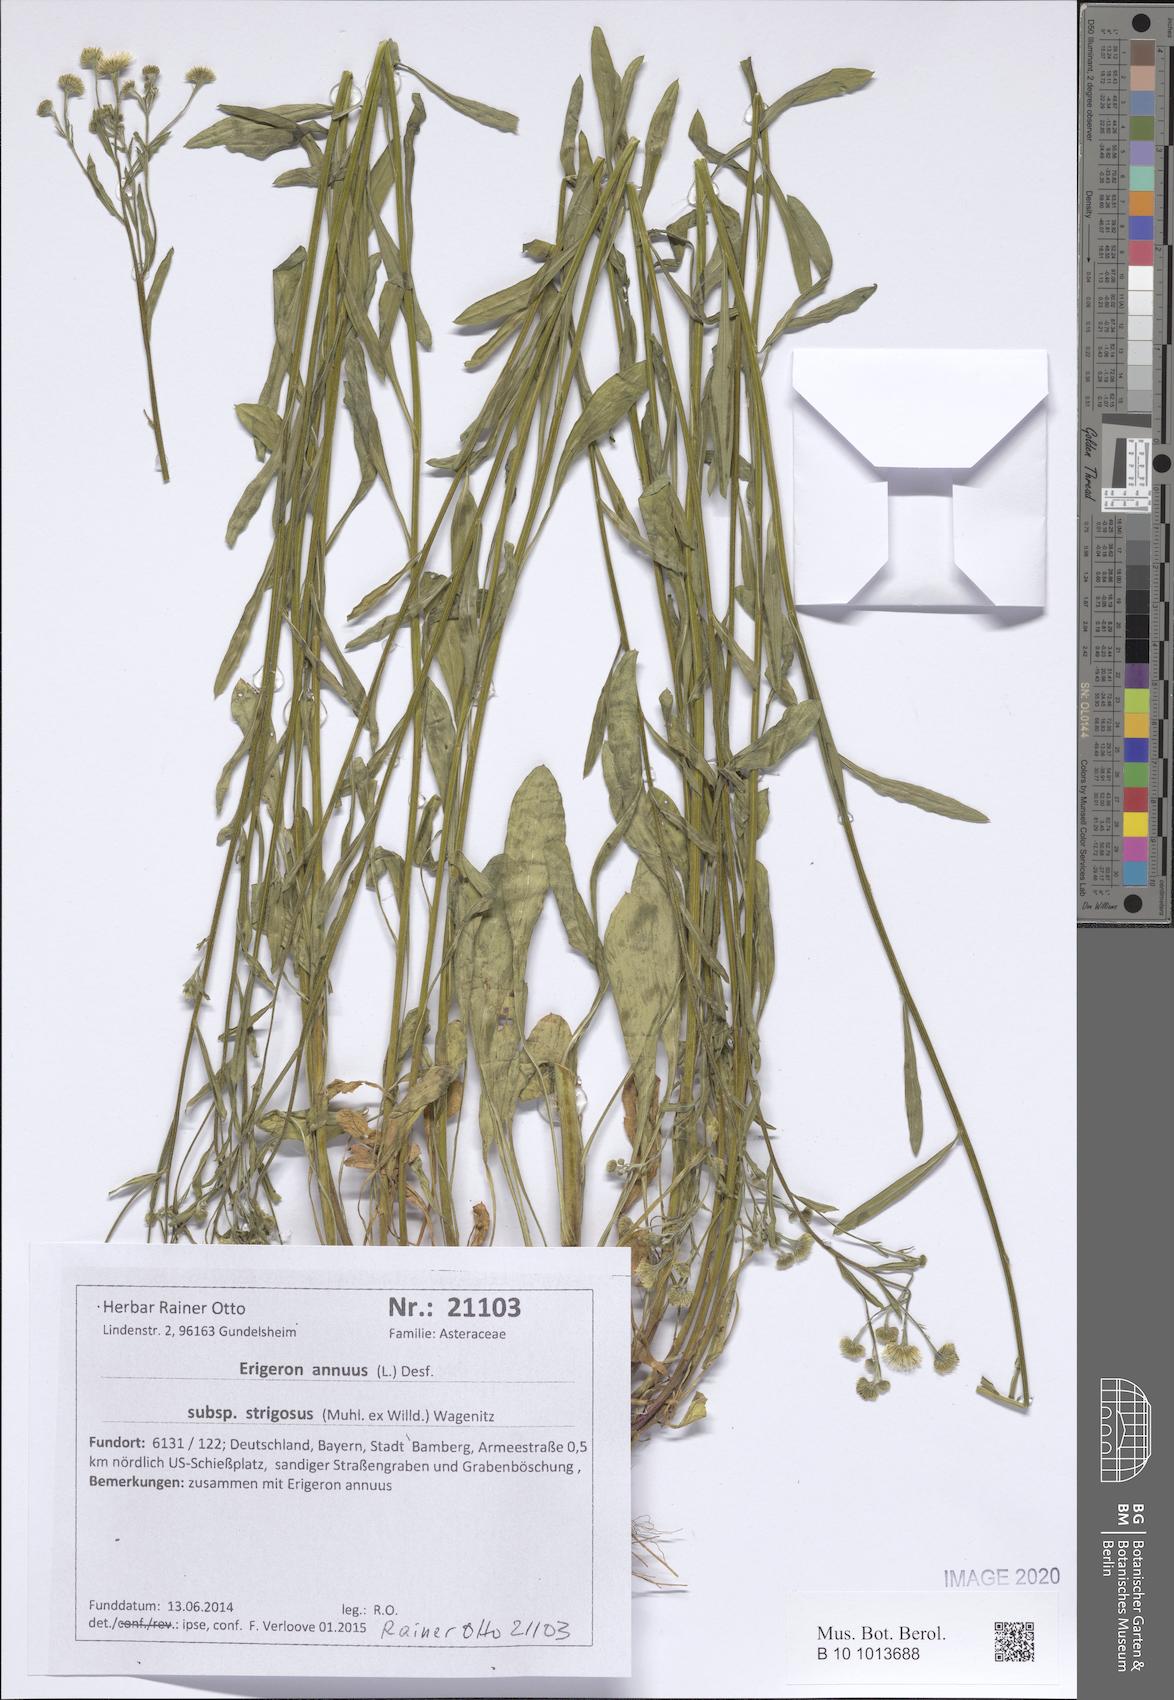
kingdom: Plantae
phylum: Tracheophyta
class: Magnoliopsida
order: Asterales
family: Asteraceae
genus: Erigeron
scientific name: Erigeron strigosus
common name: Common eastern fleabane
